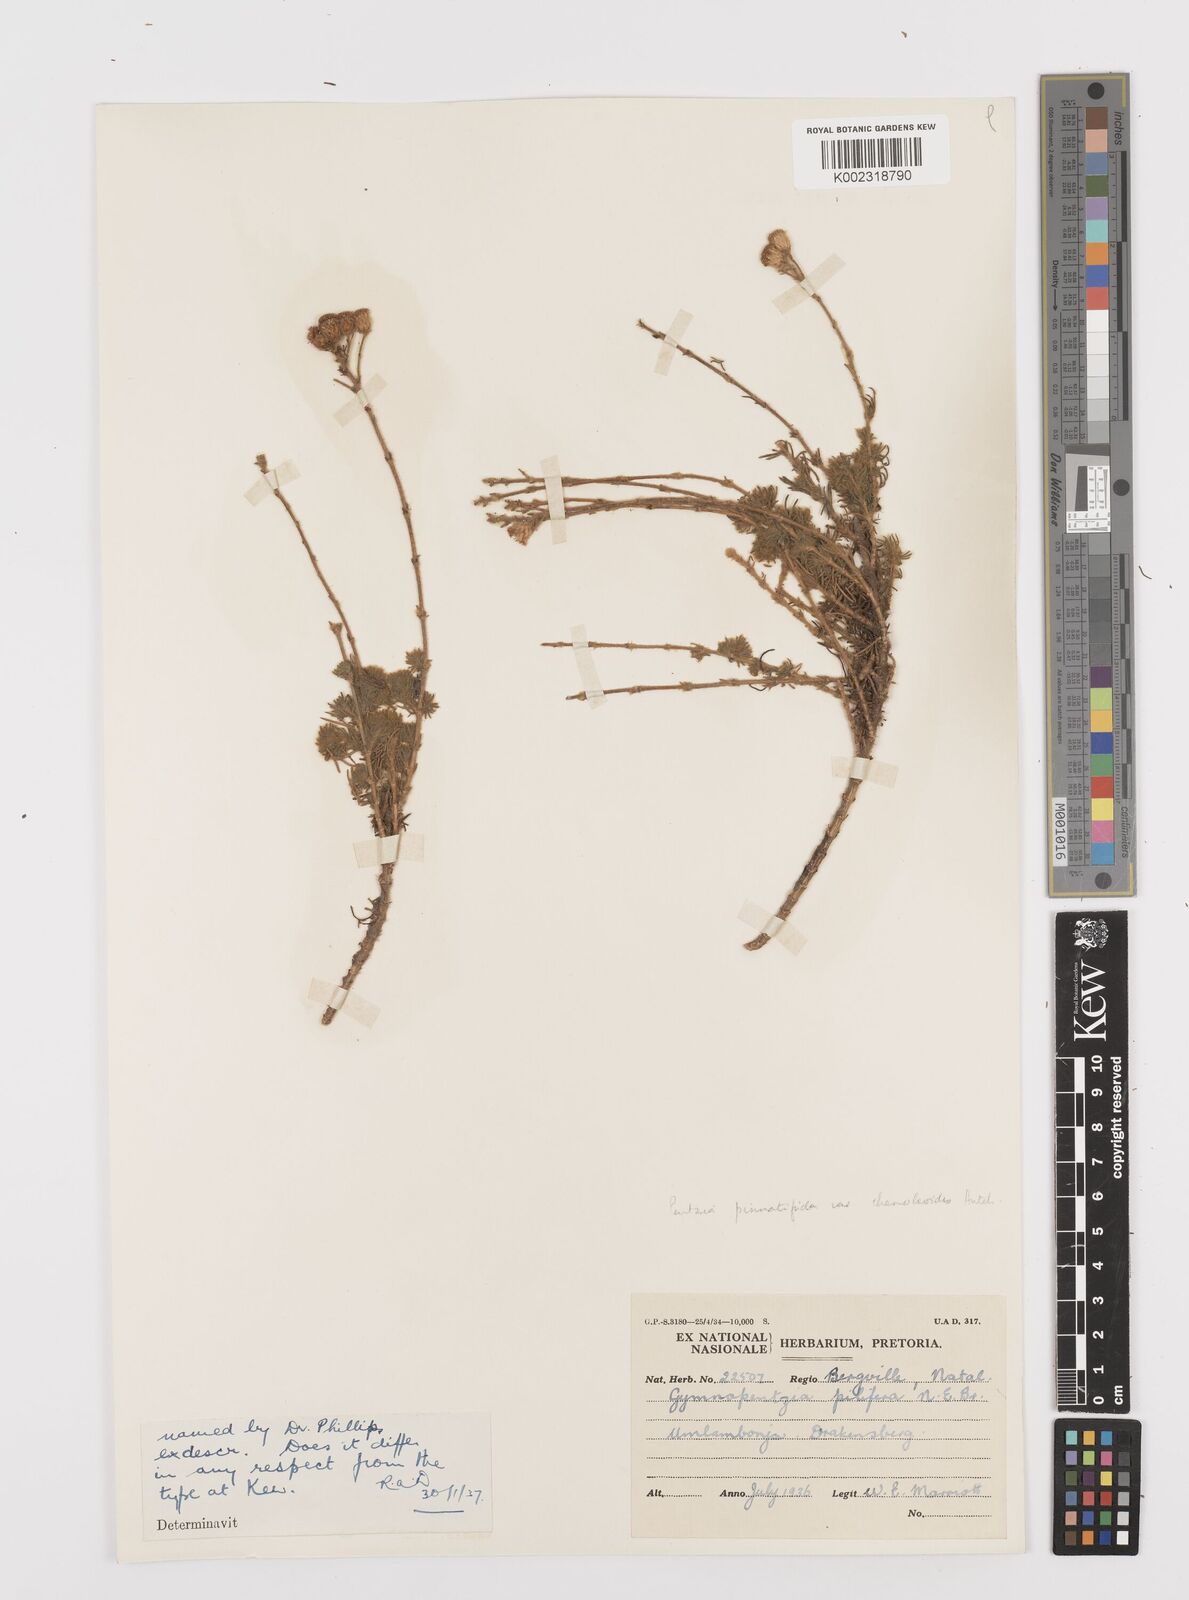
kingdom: Plantae
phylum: Tracheophyta
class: Magnoliopsida
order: Asterales
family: Asteraceae
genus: Gymnopentzia
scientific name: Gymnopentzia bifurcata
